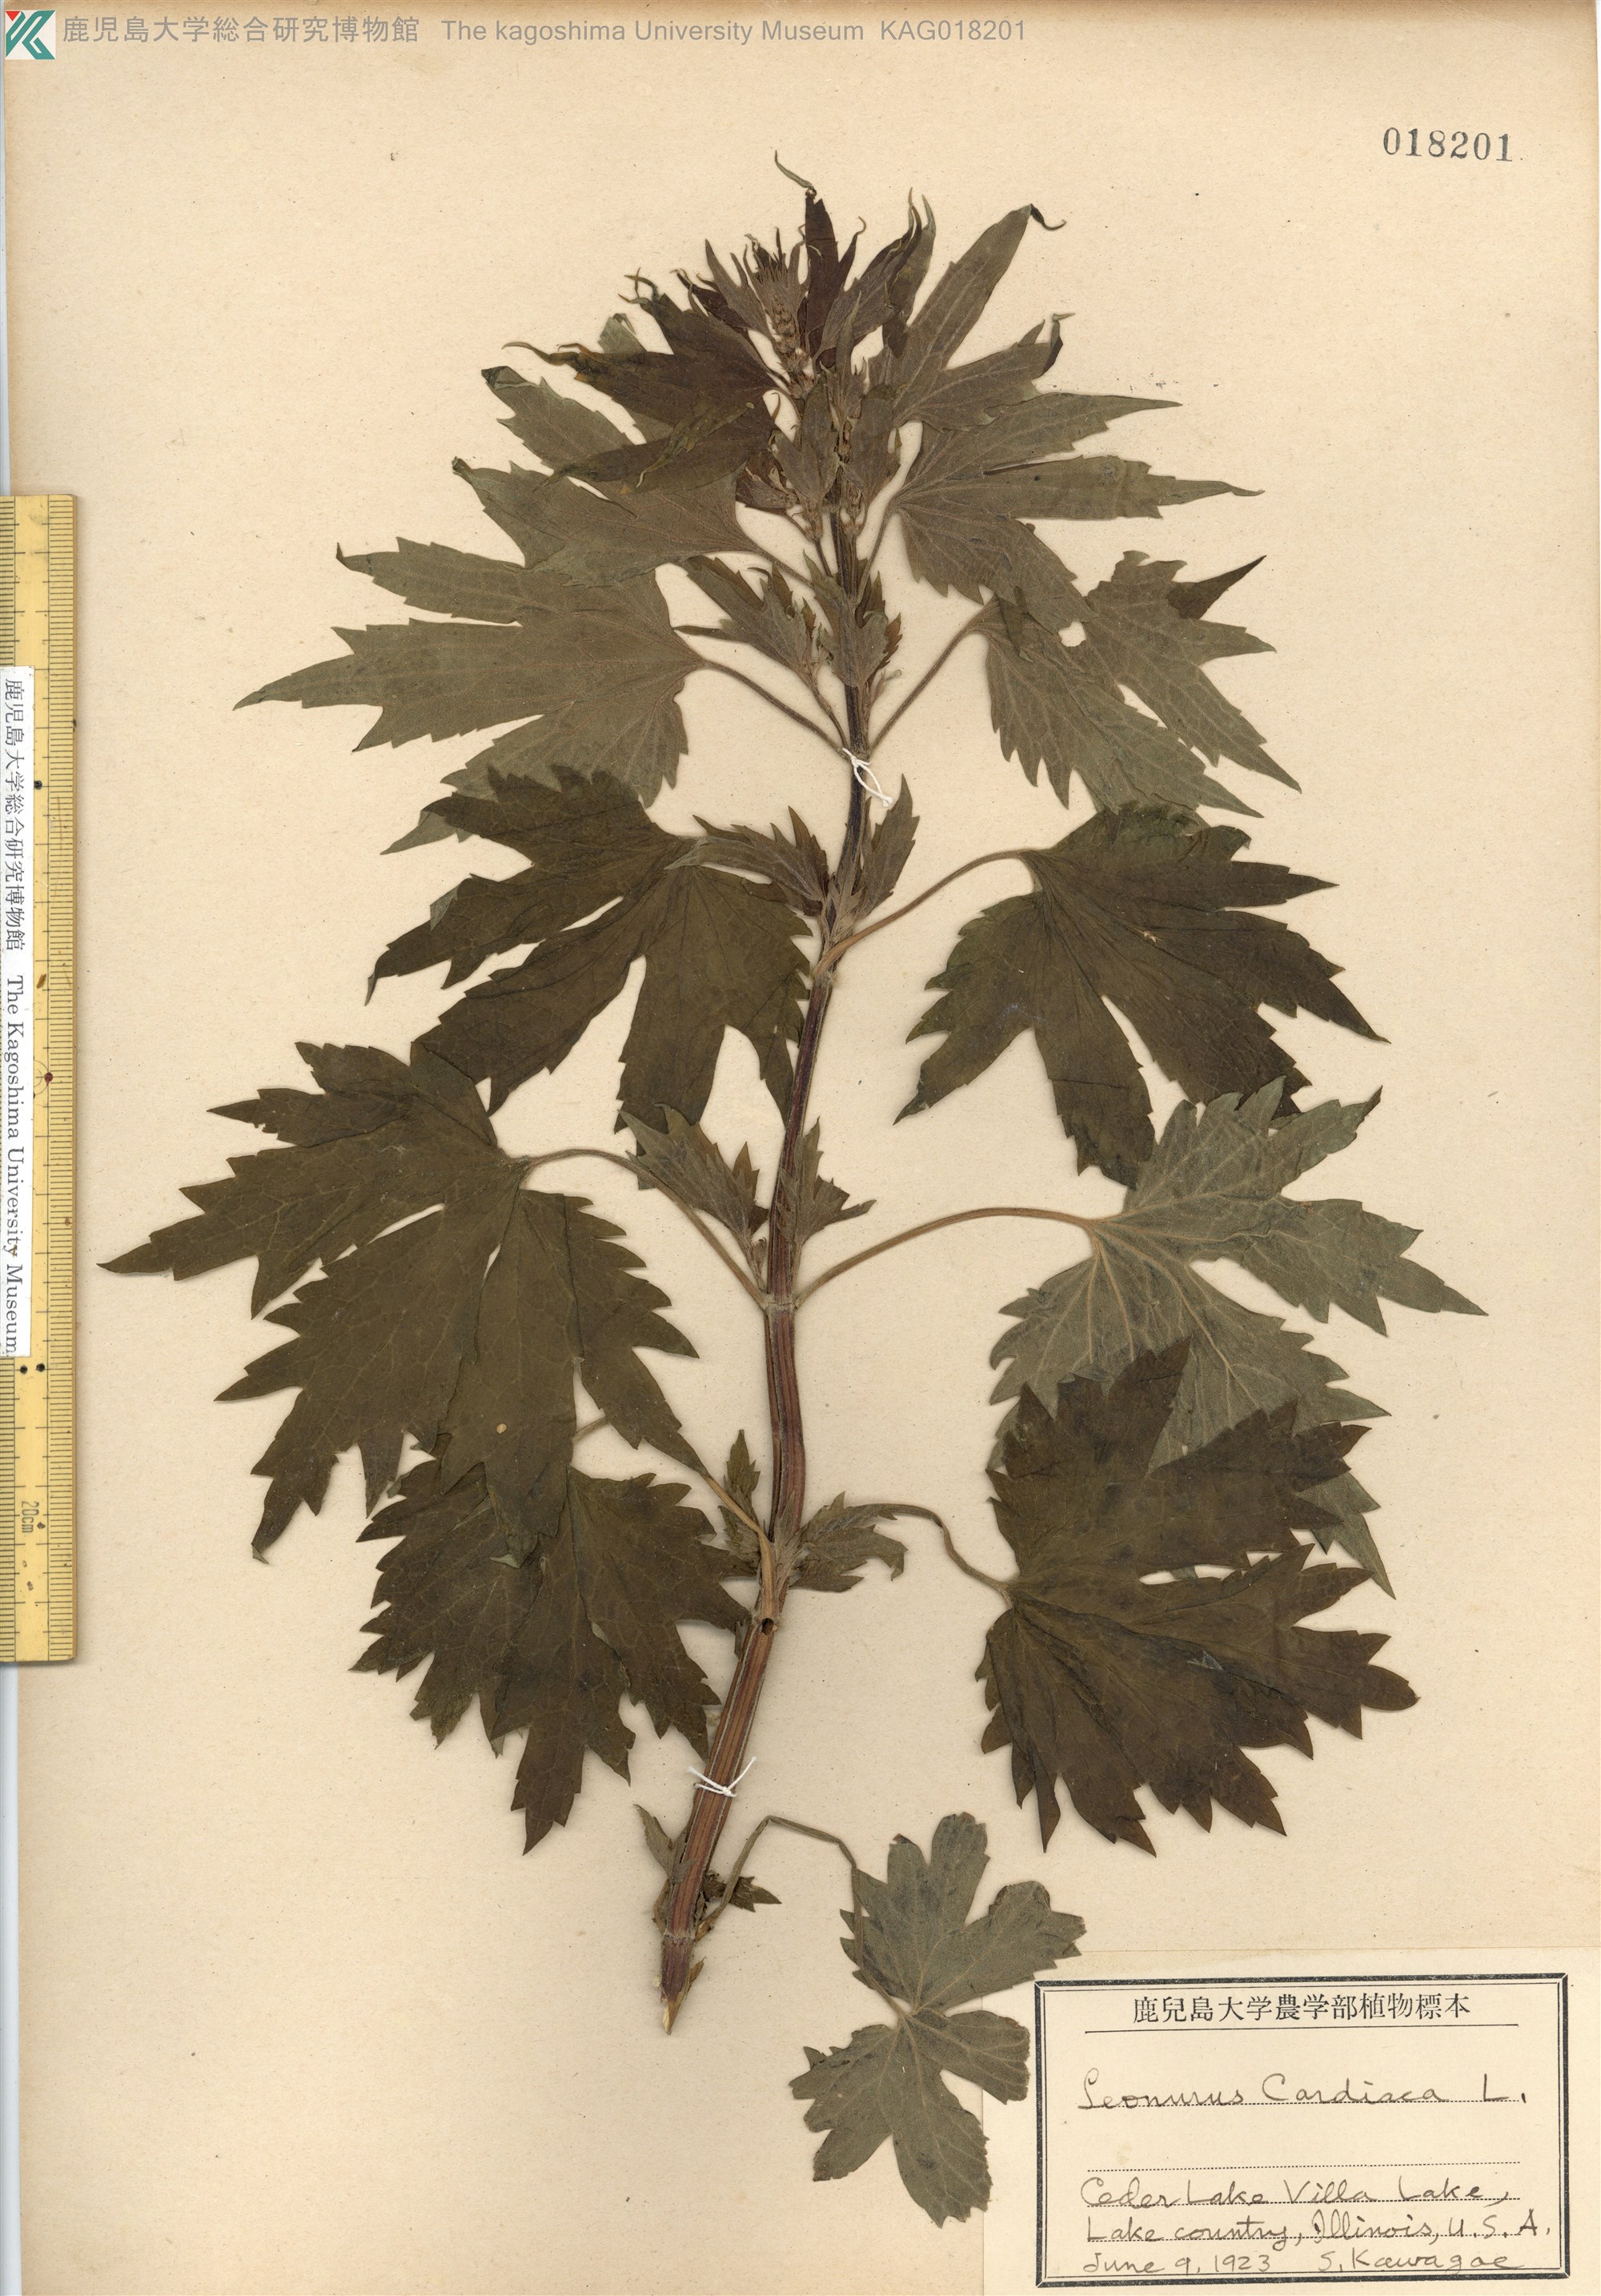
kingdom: Plantae
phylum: Tracheophyta
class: Magnoliopsida
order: Lamiales
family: Lamiaceae
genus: Leonurus
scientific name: Leonurus cardiaca
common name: Motherwort
